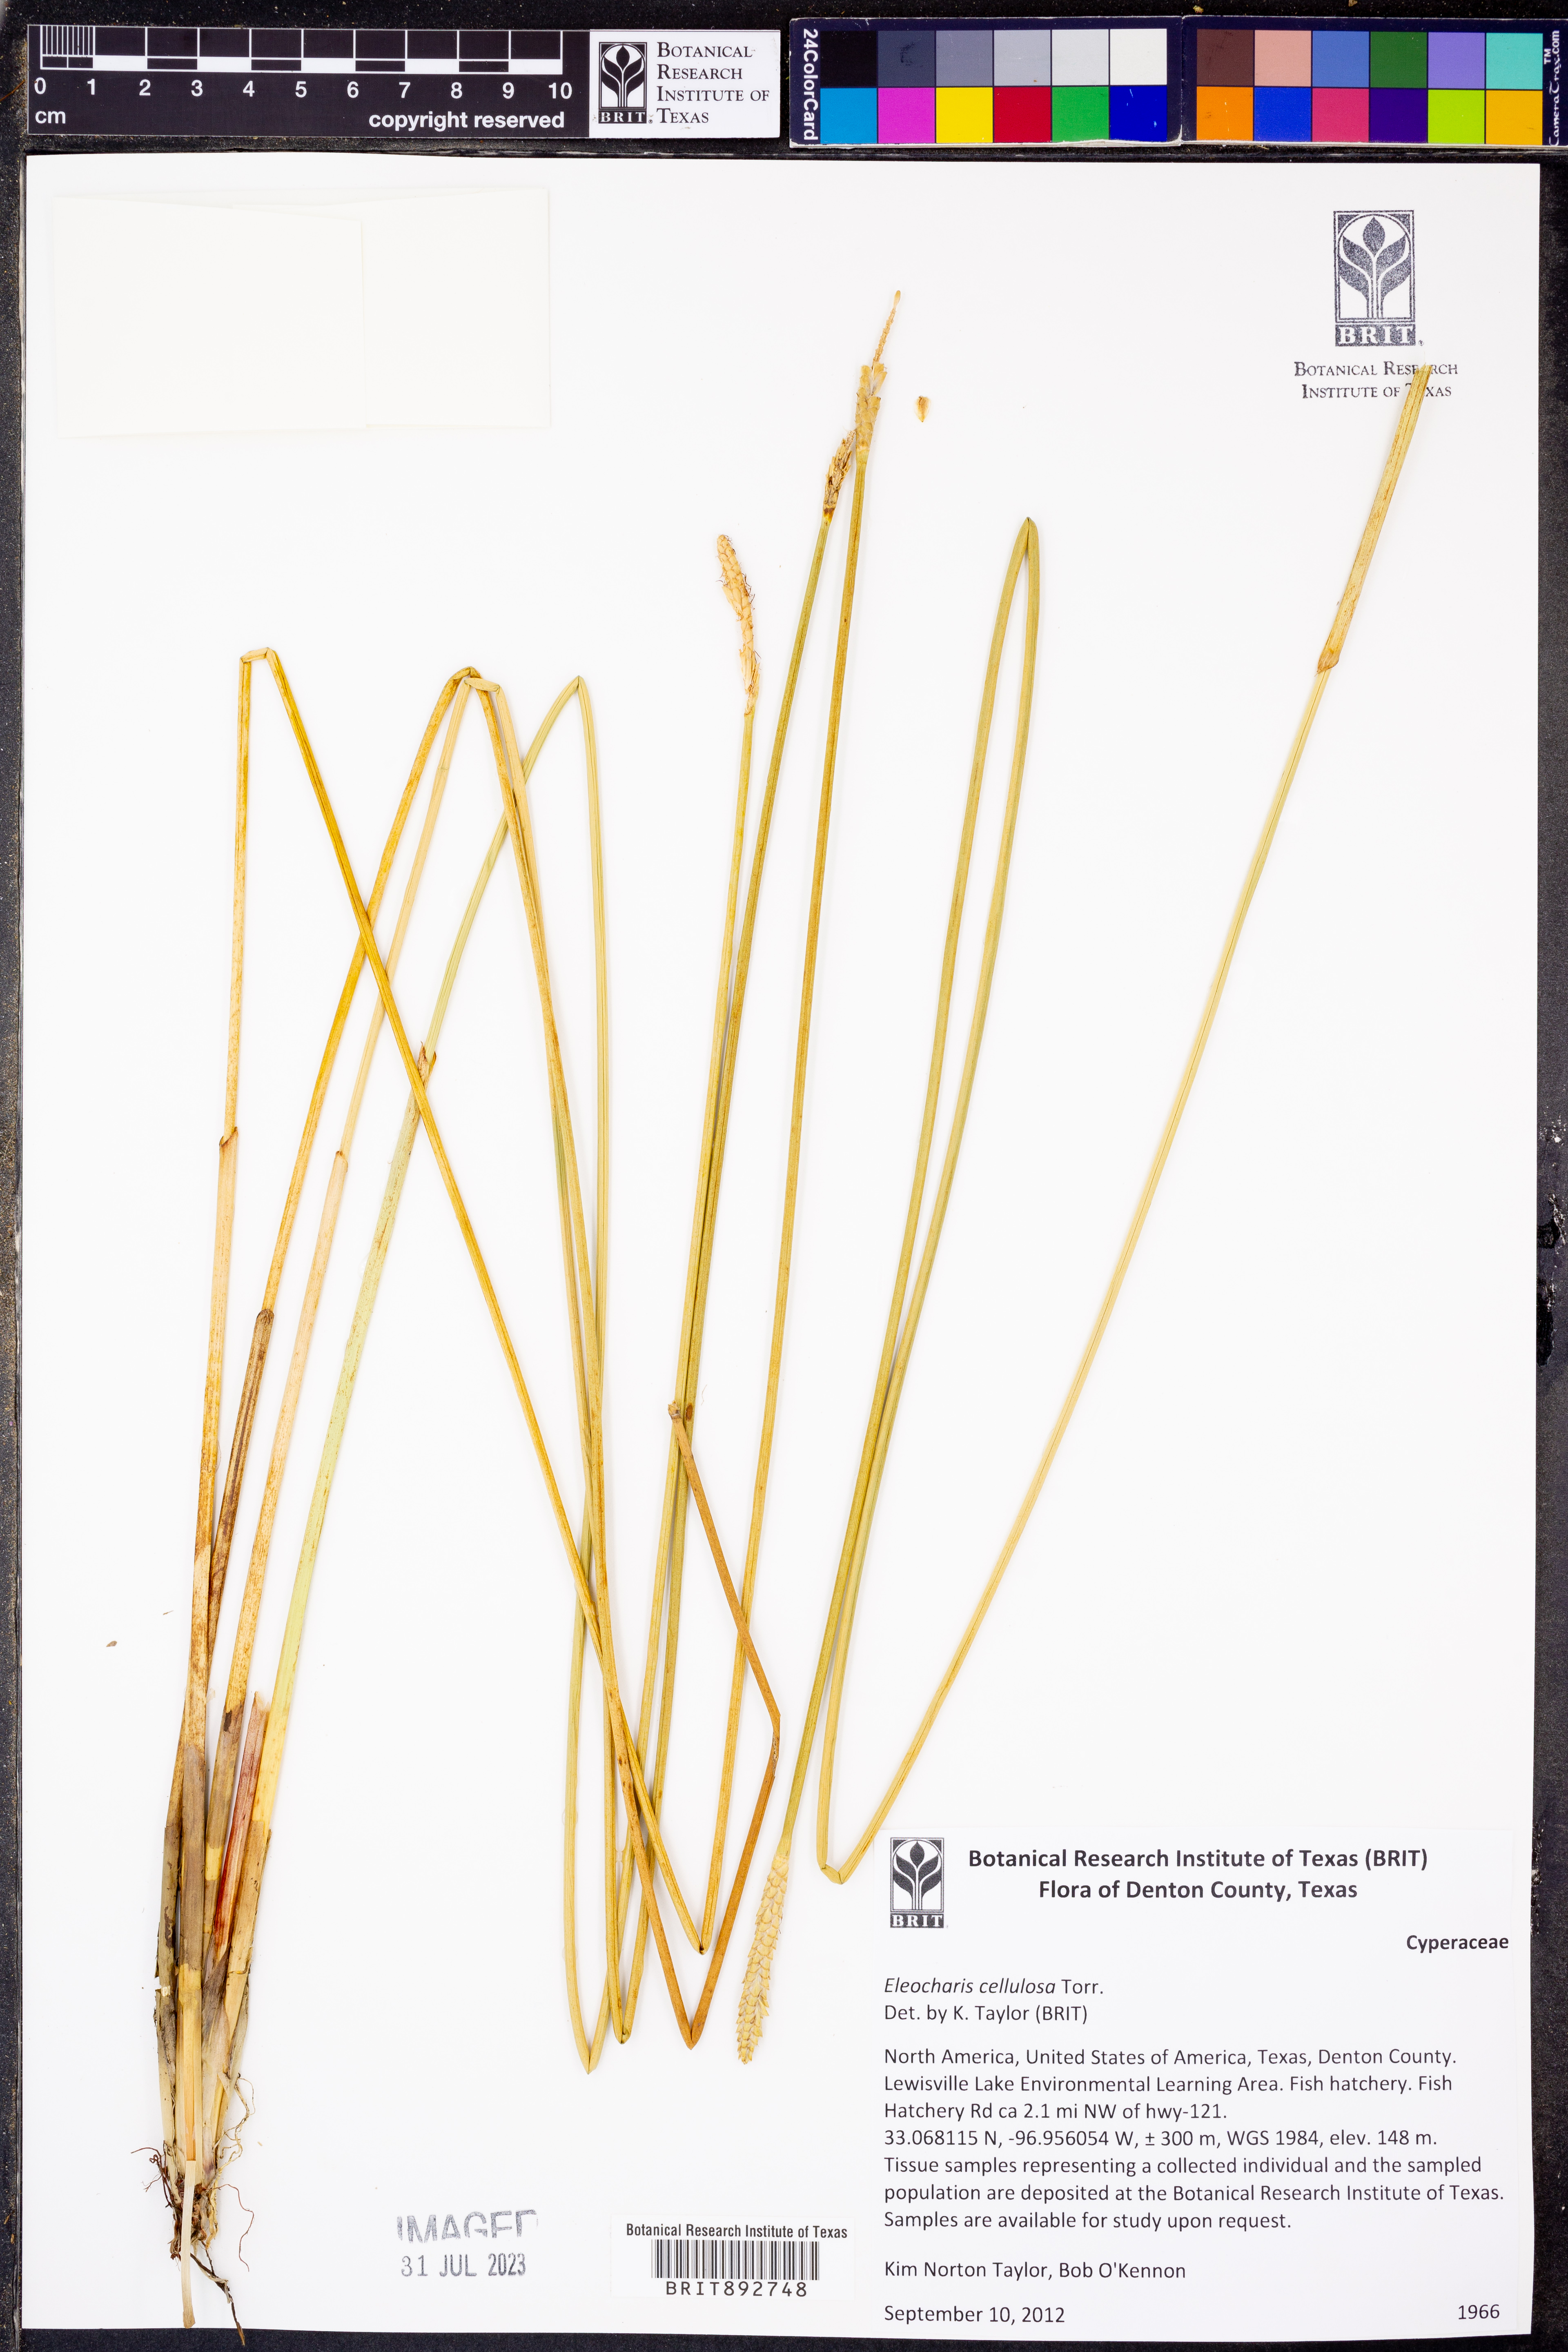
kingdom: Plantae
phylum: Tracheophyta
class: Liliopsida
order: Poales
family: Cyperaceae
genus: Eleocharis
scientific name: Eleocharis cellulosa
